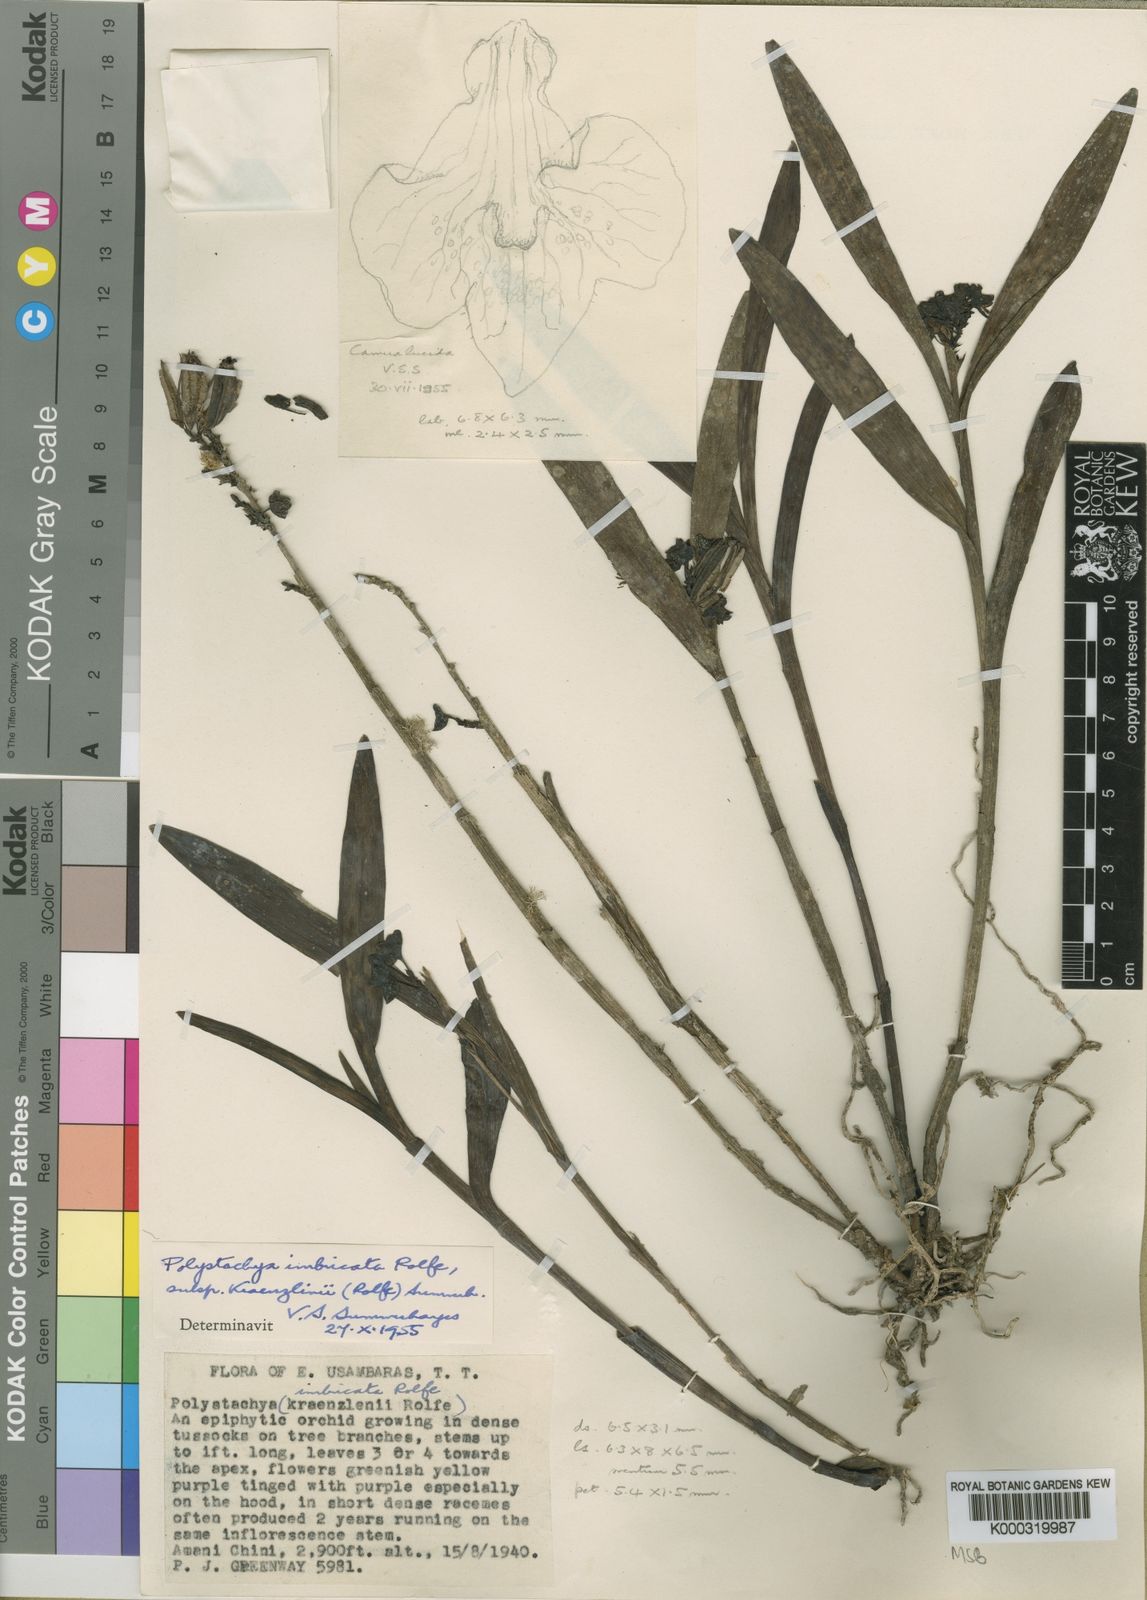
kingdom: Plantae
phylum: Tracheophyta
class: Liliopsida
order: Asparagales
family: Orchidaceae
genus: Polystachya
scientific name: Polystachya albescens
